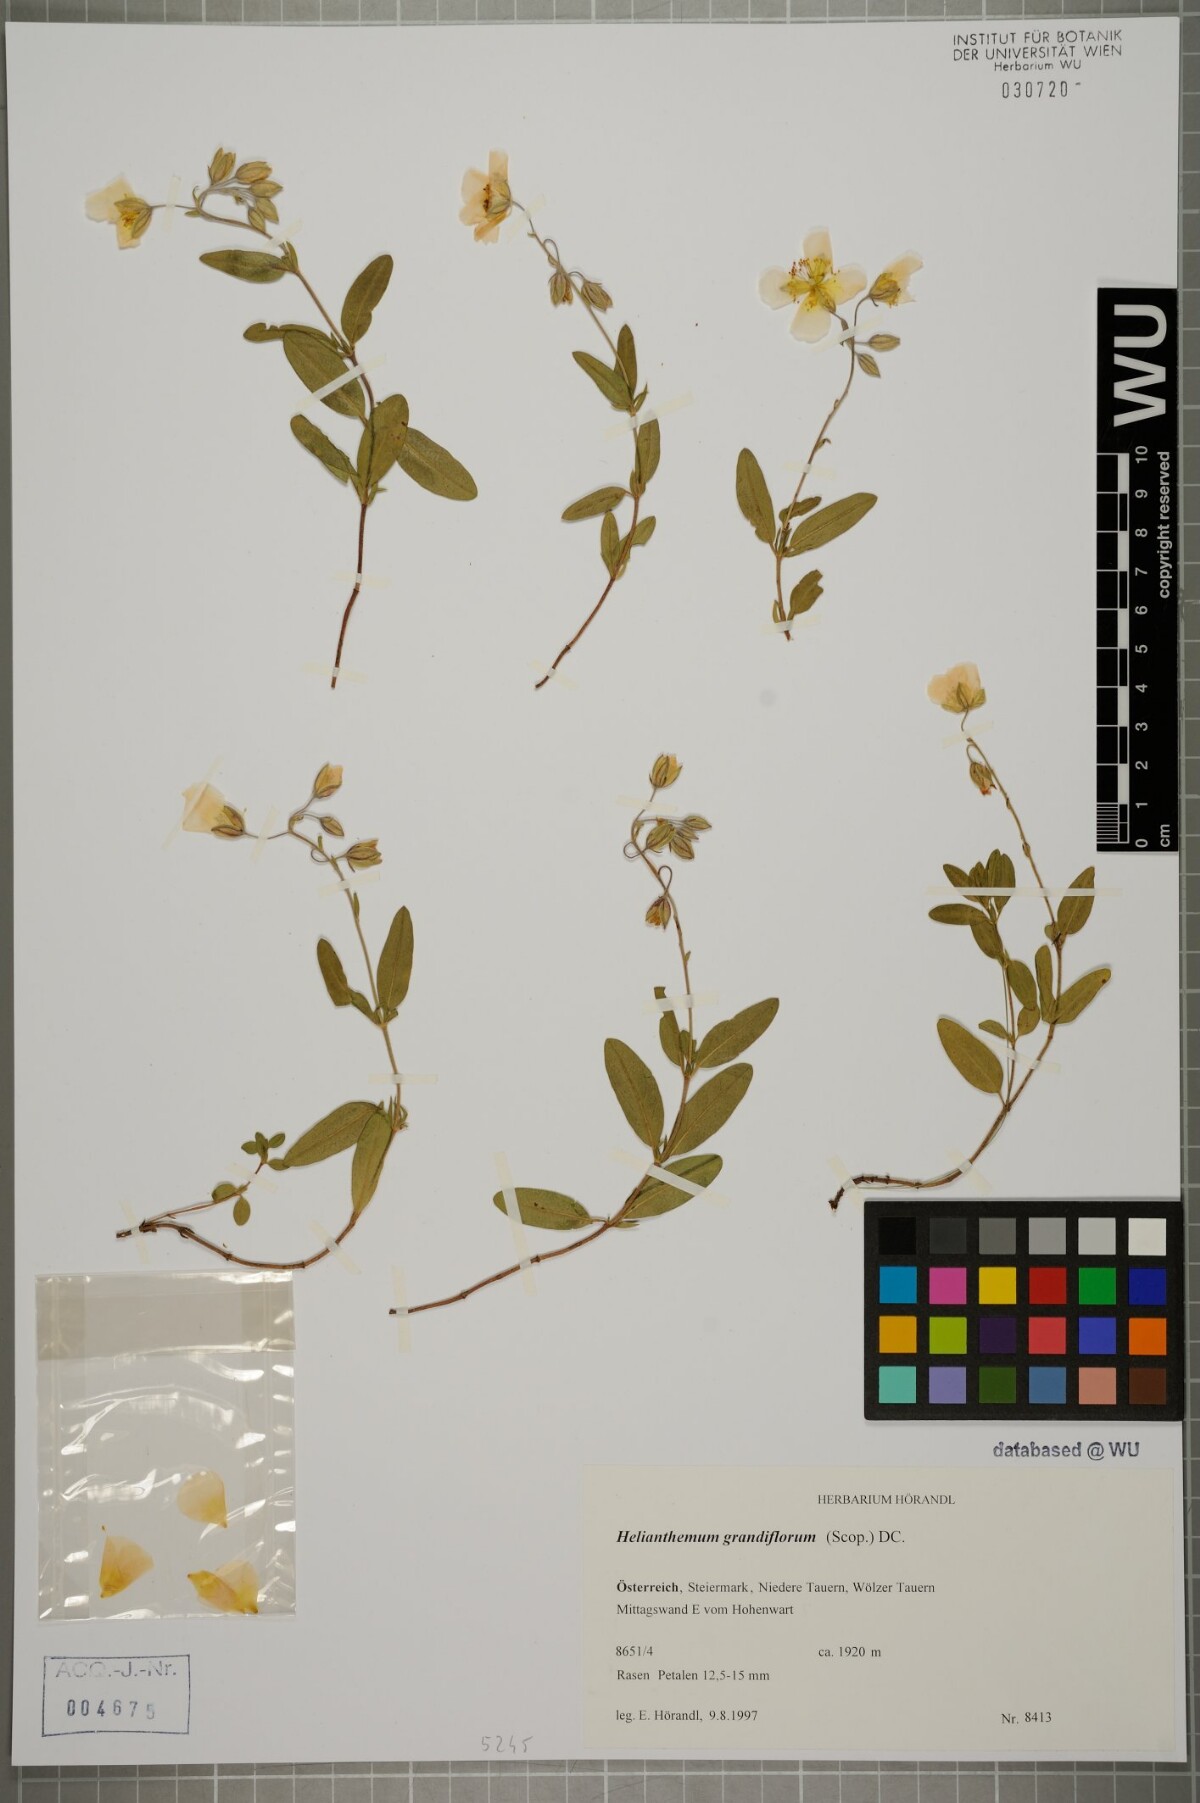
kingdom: Plantae
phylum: Tracheophyta
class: Magnoliopsida
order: Malvales
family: Cistaceae
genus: Helianthemum
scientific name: Helianthemum nummularium
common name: Common rock-rose
